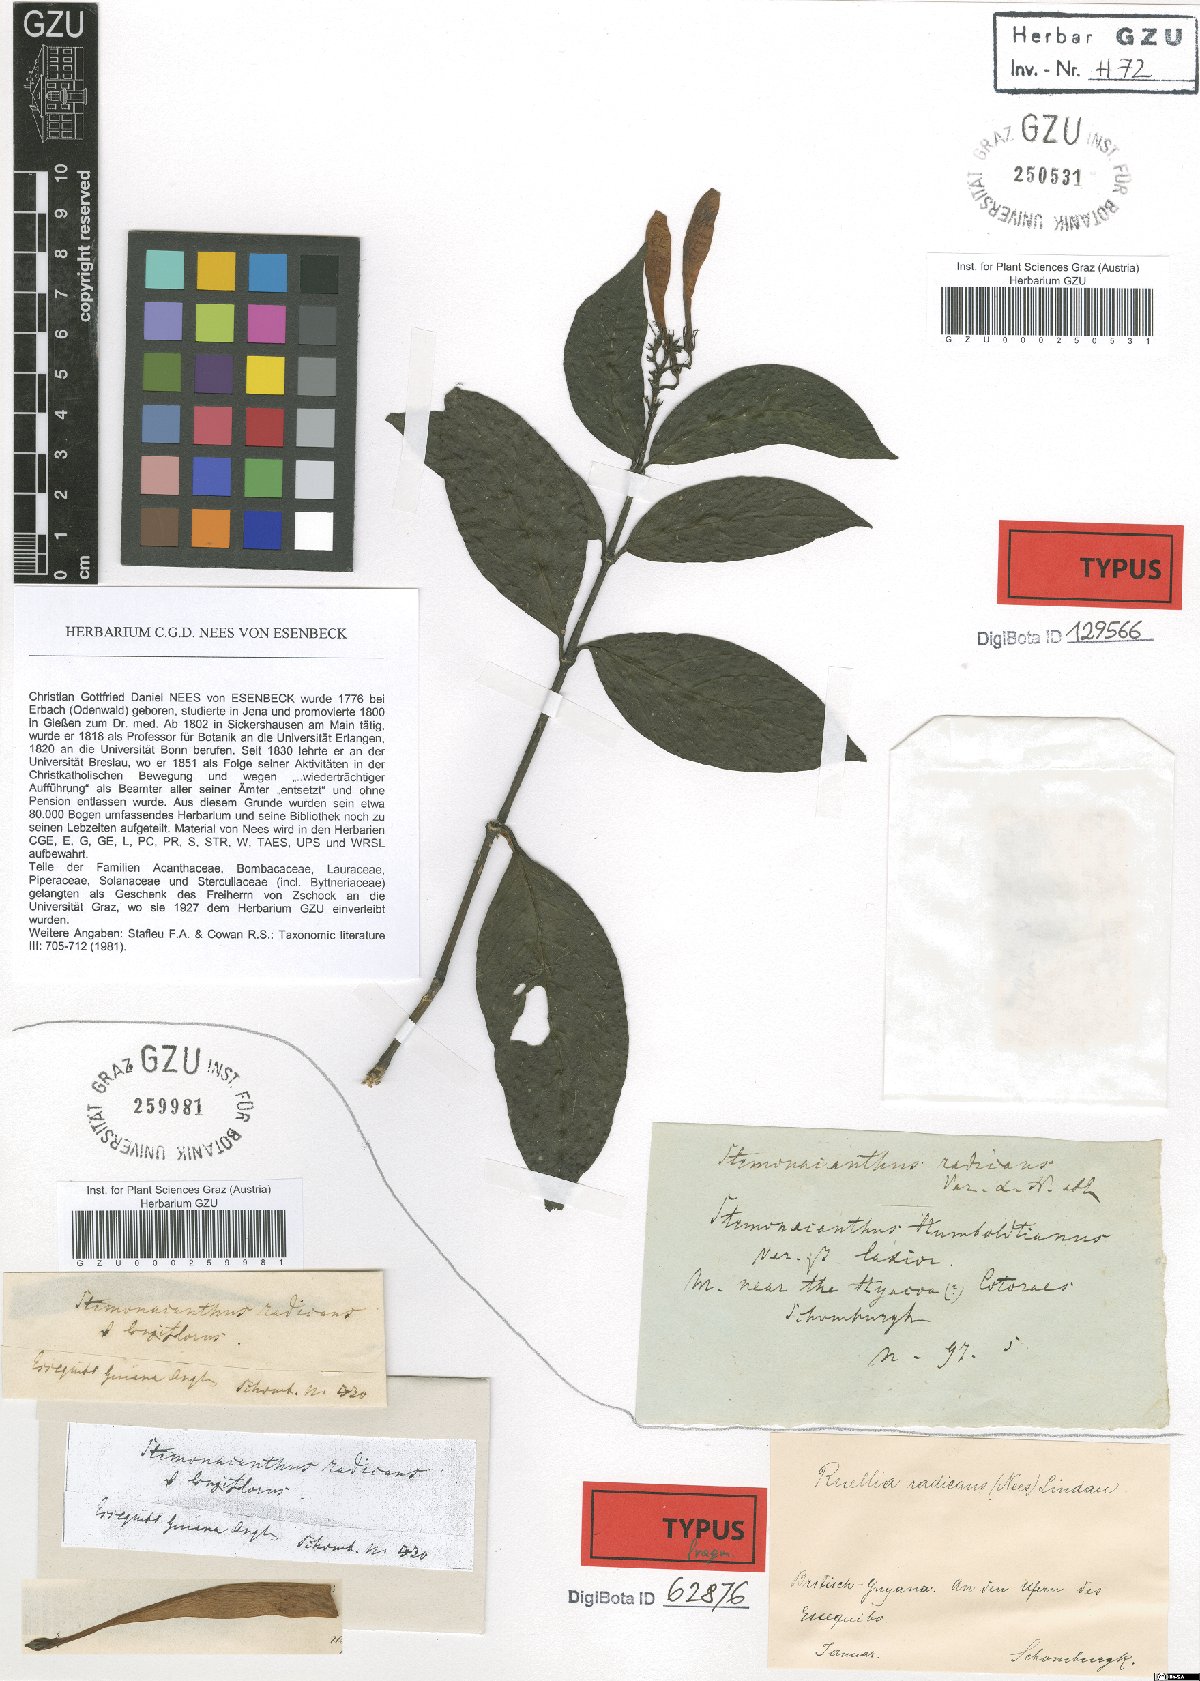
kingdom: Plantae
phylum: Tracheophyta
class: Magnoliopsida
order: Lamiales
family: Acanthaceae
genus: Ruellia
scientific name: Ruellia radicans
